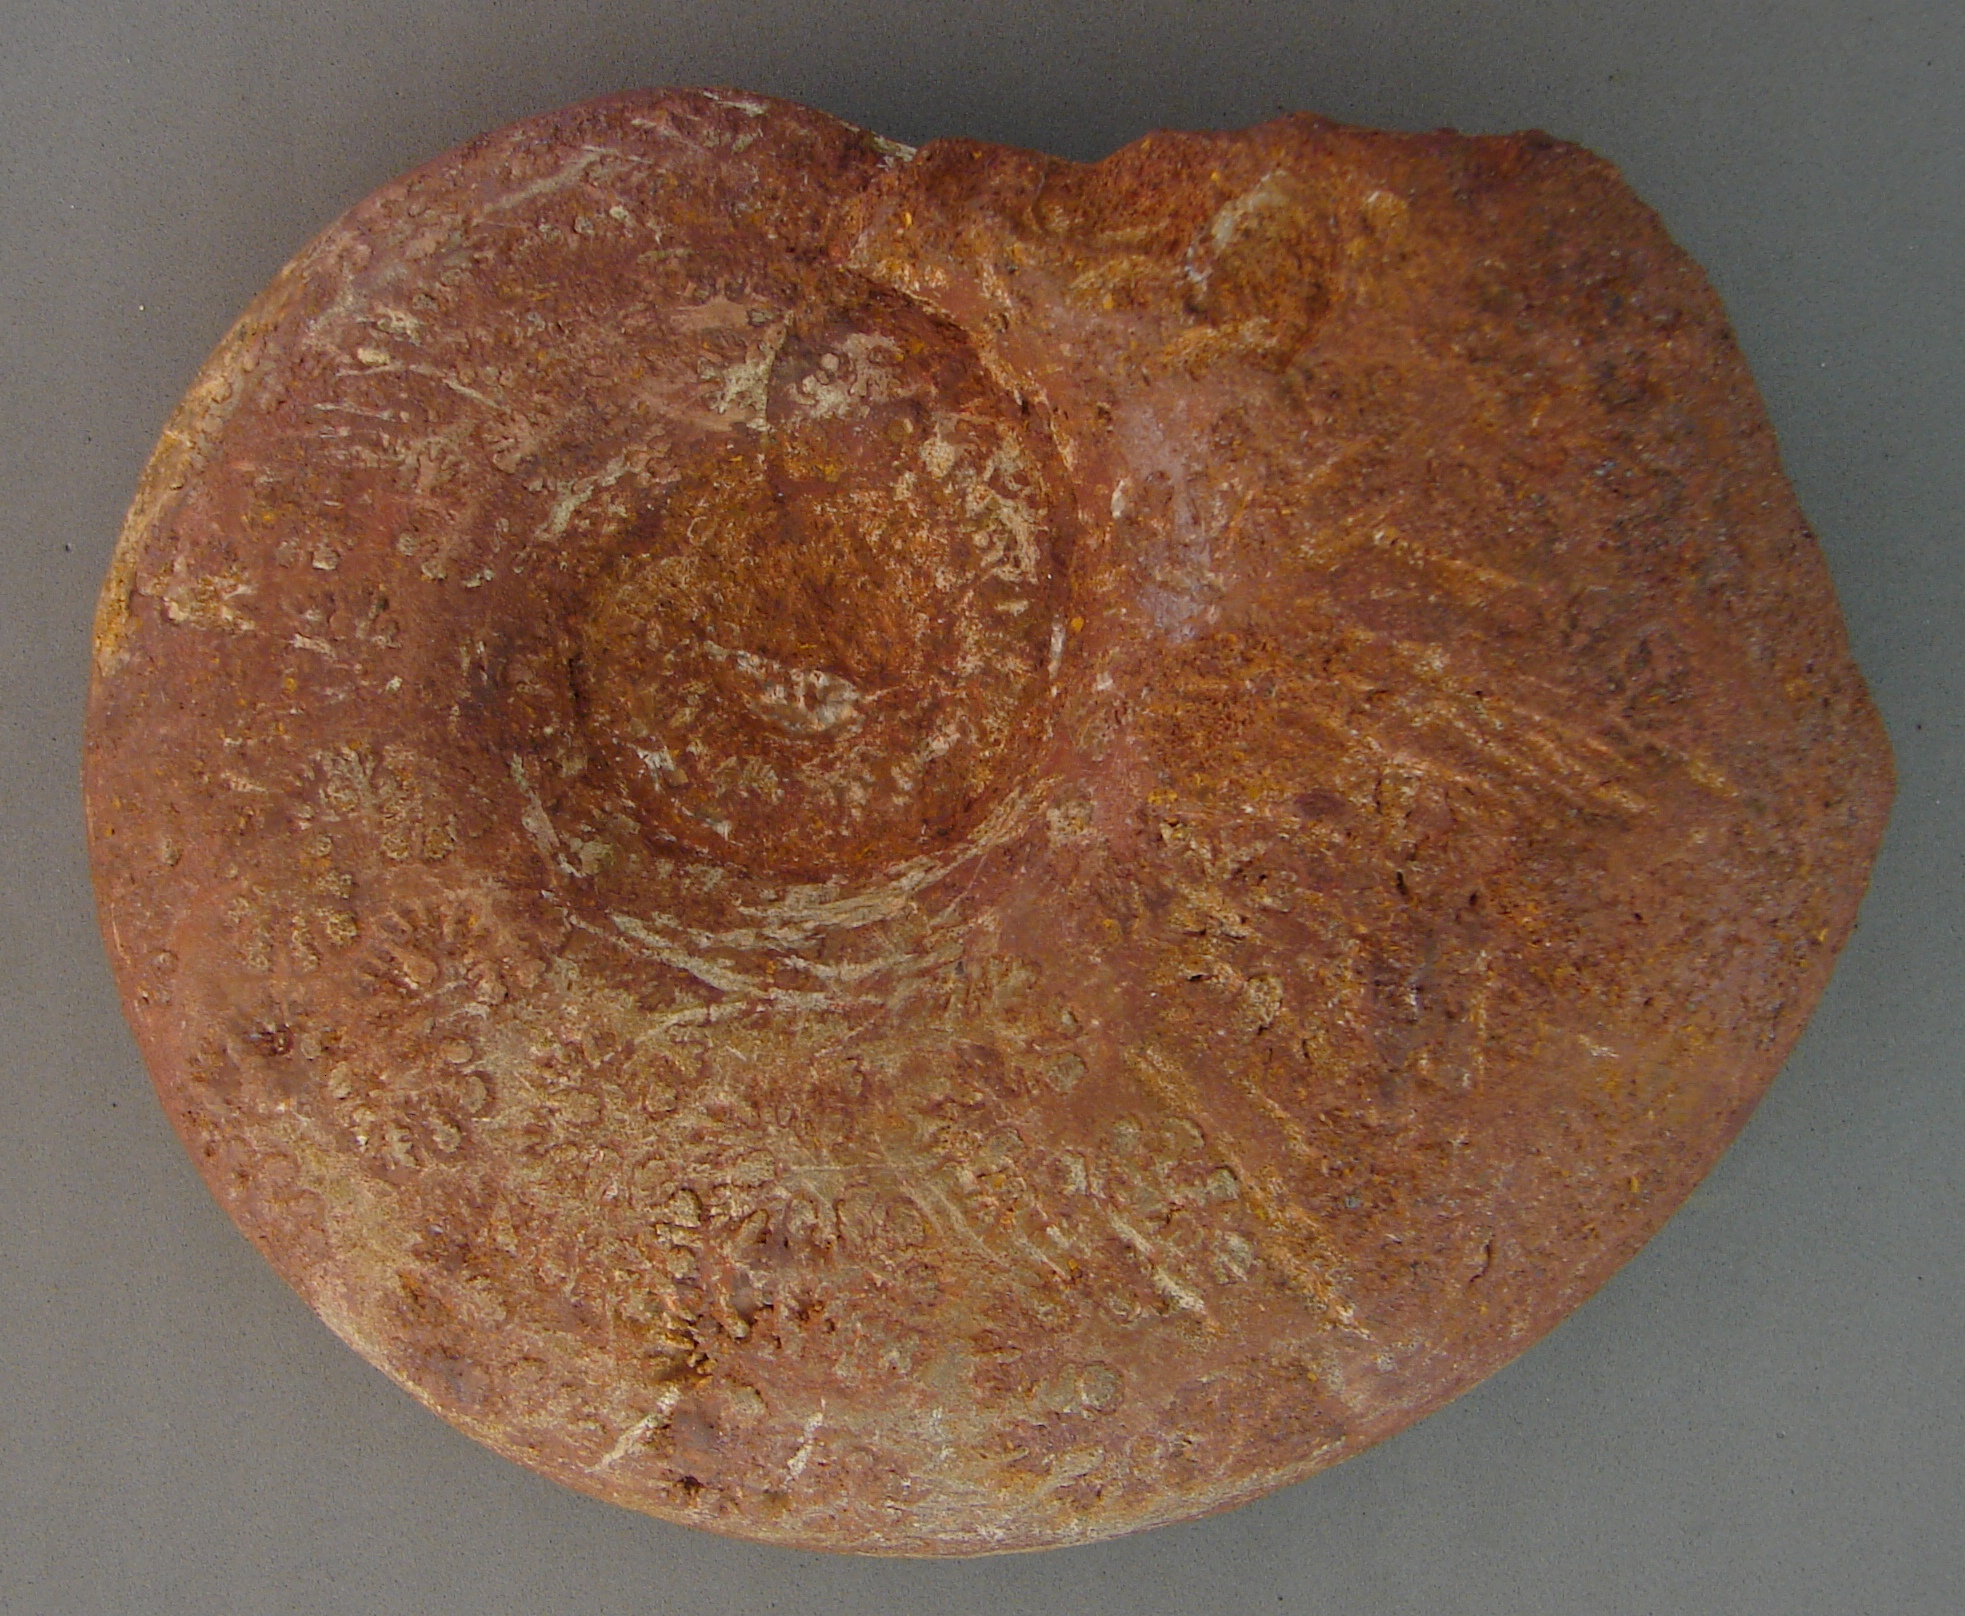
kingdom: Animalia
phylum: Mollusca
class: Cephalopoda
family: Lytoceratidae
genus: Pleurolytoceras
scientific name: Pleurolytoceras wrighti
